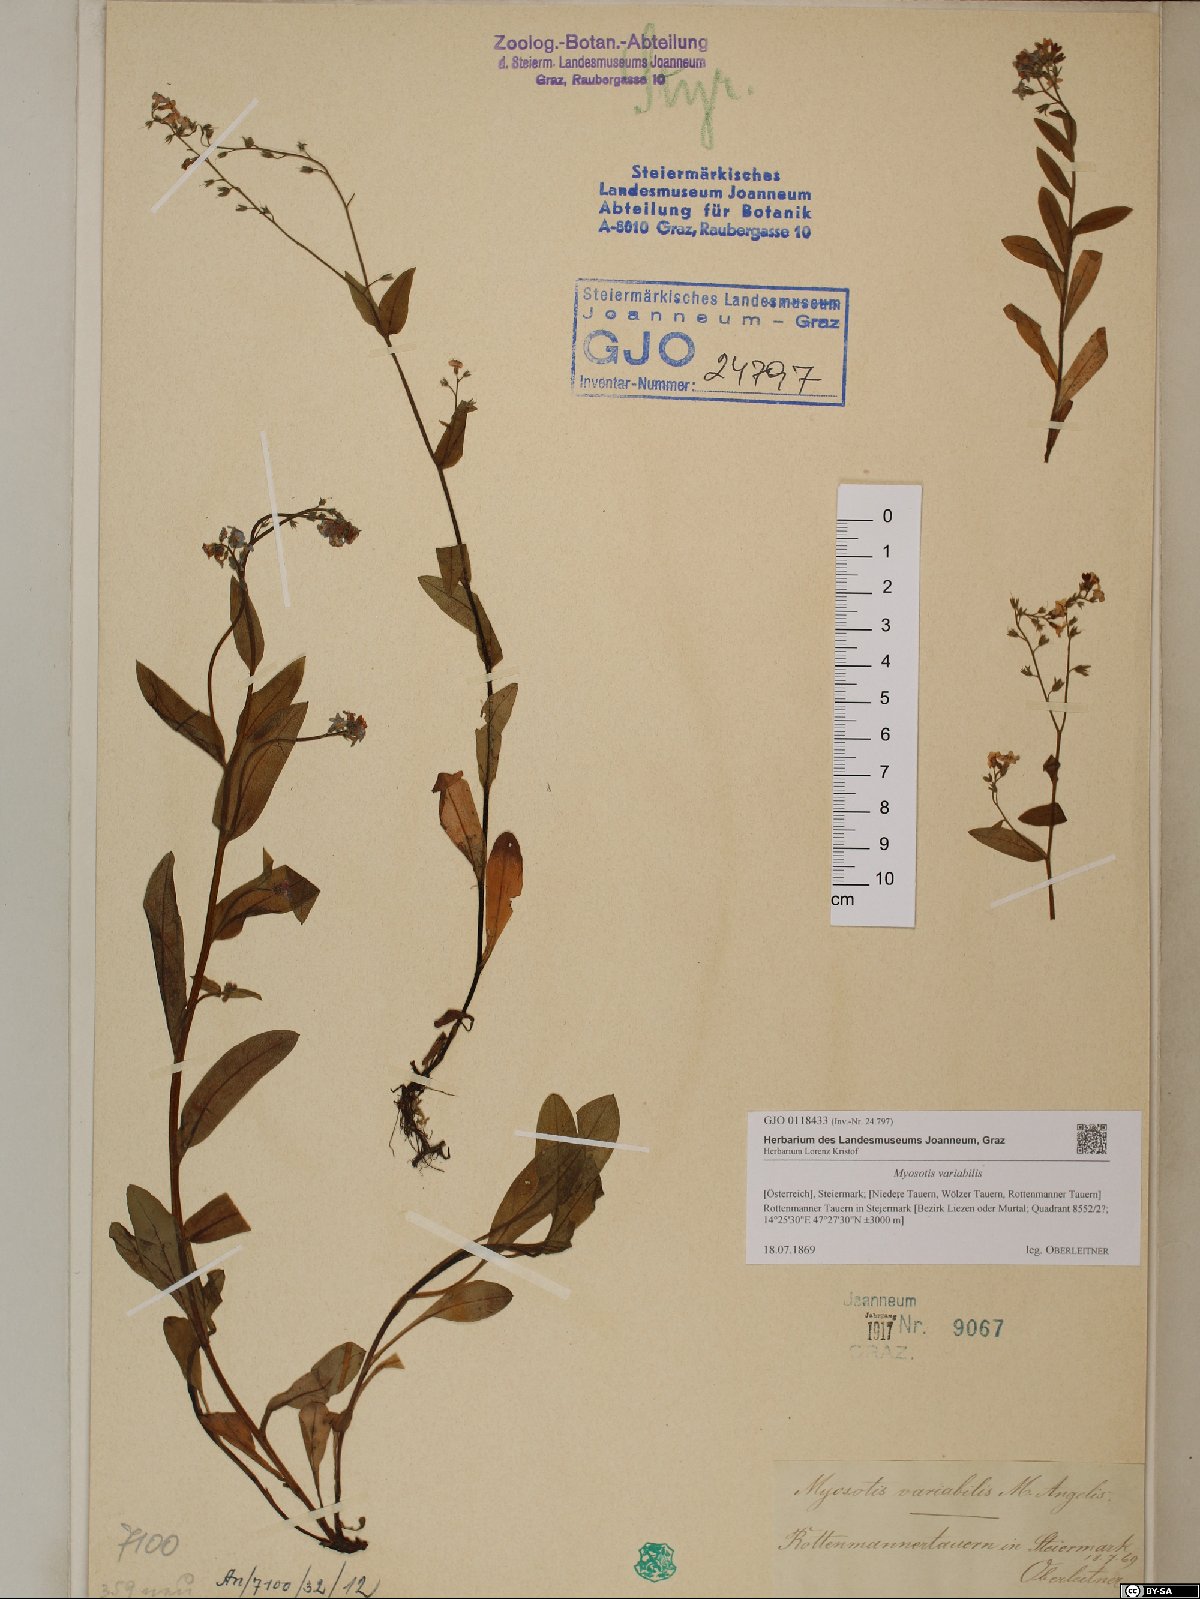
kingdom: Plantae
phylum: Tracheophyta
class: Magnoliopsida
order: Boraginales
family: Boraginaceae
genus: Myosotis
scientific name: Myosotis decumbens
